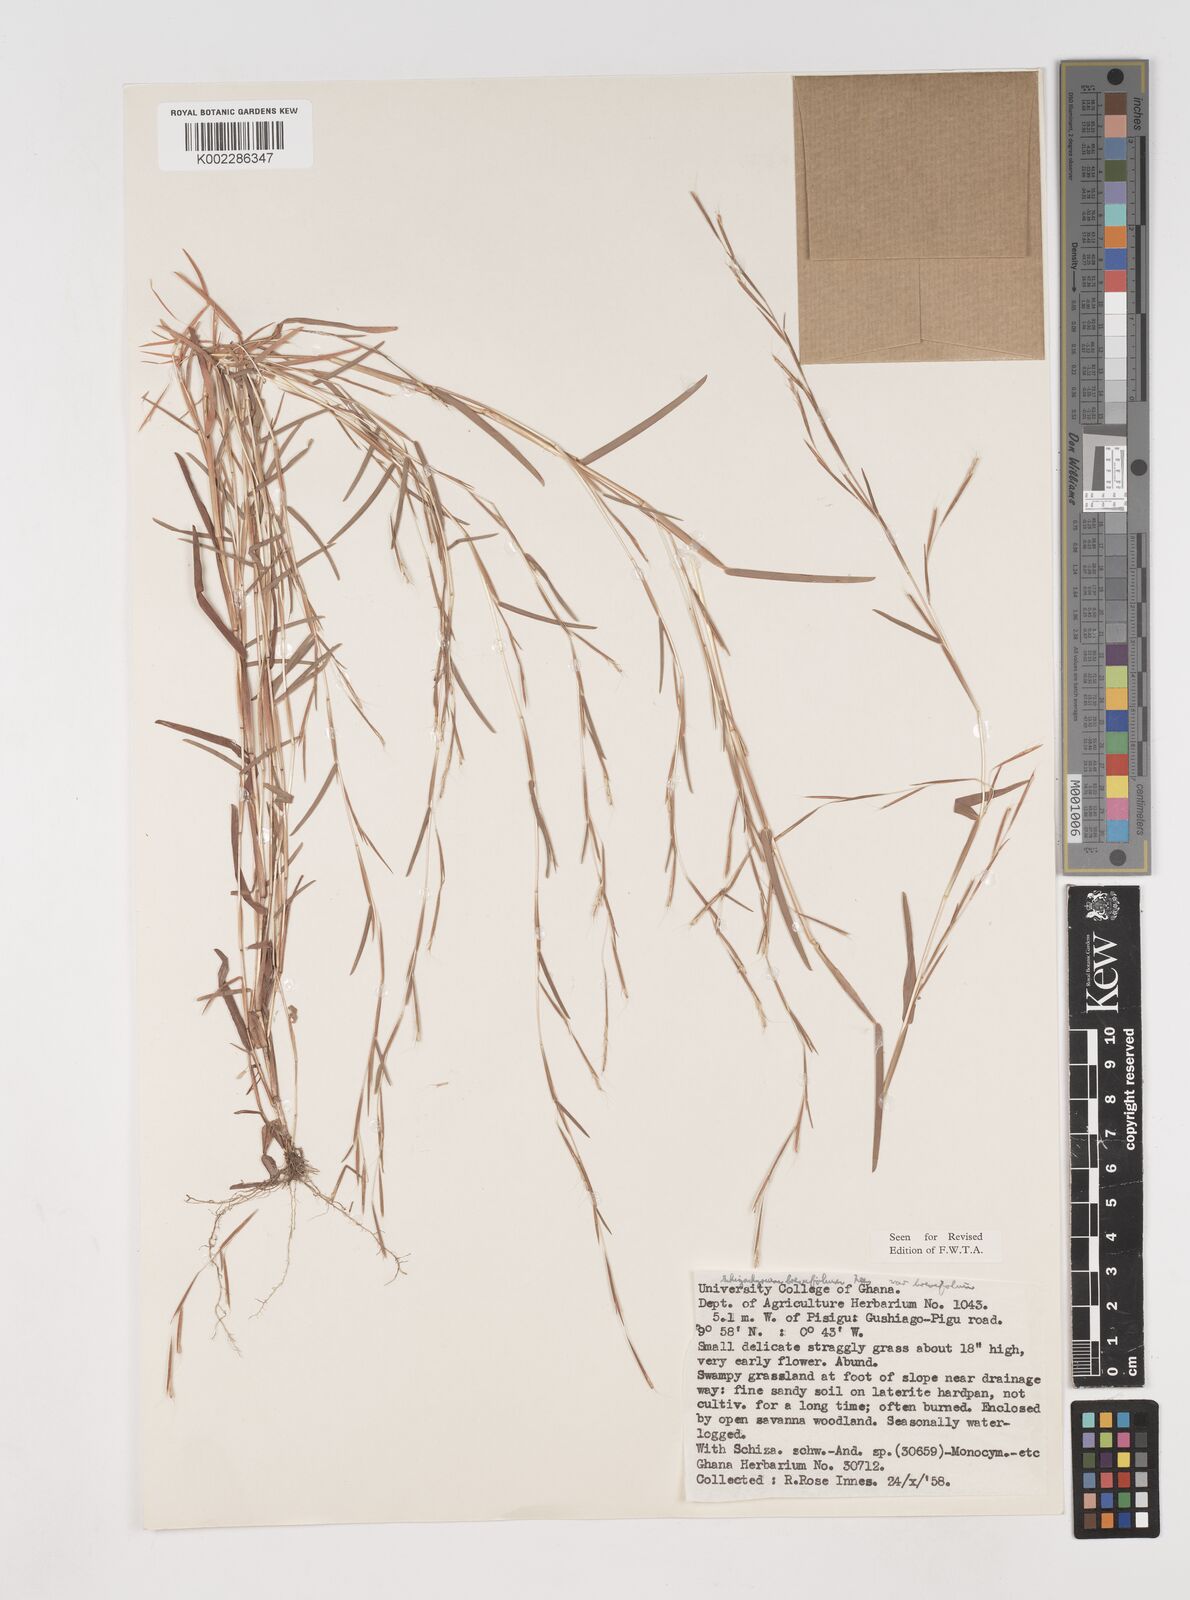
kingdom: Plantae
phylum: Tracheophyta
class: Liliopsida
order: Poales
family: Poaceae
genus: Schizachyrium
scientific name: Schizachyrium brevifolium
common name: Serillo dulce
